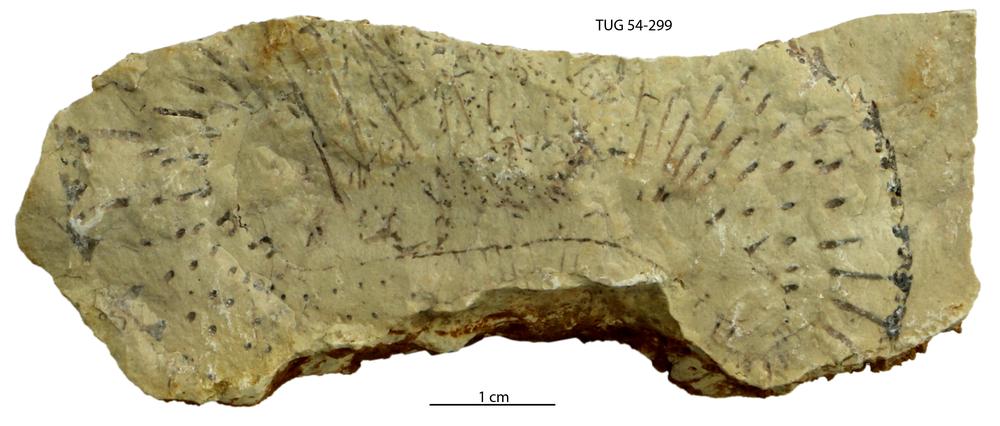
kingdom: Plantae
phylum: Chlorophyta
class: Chlorophyceae
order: Receptaculitales
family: Receptaculitaceae
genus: Receptaculites
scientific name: Receptaculites
